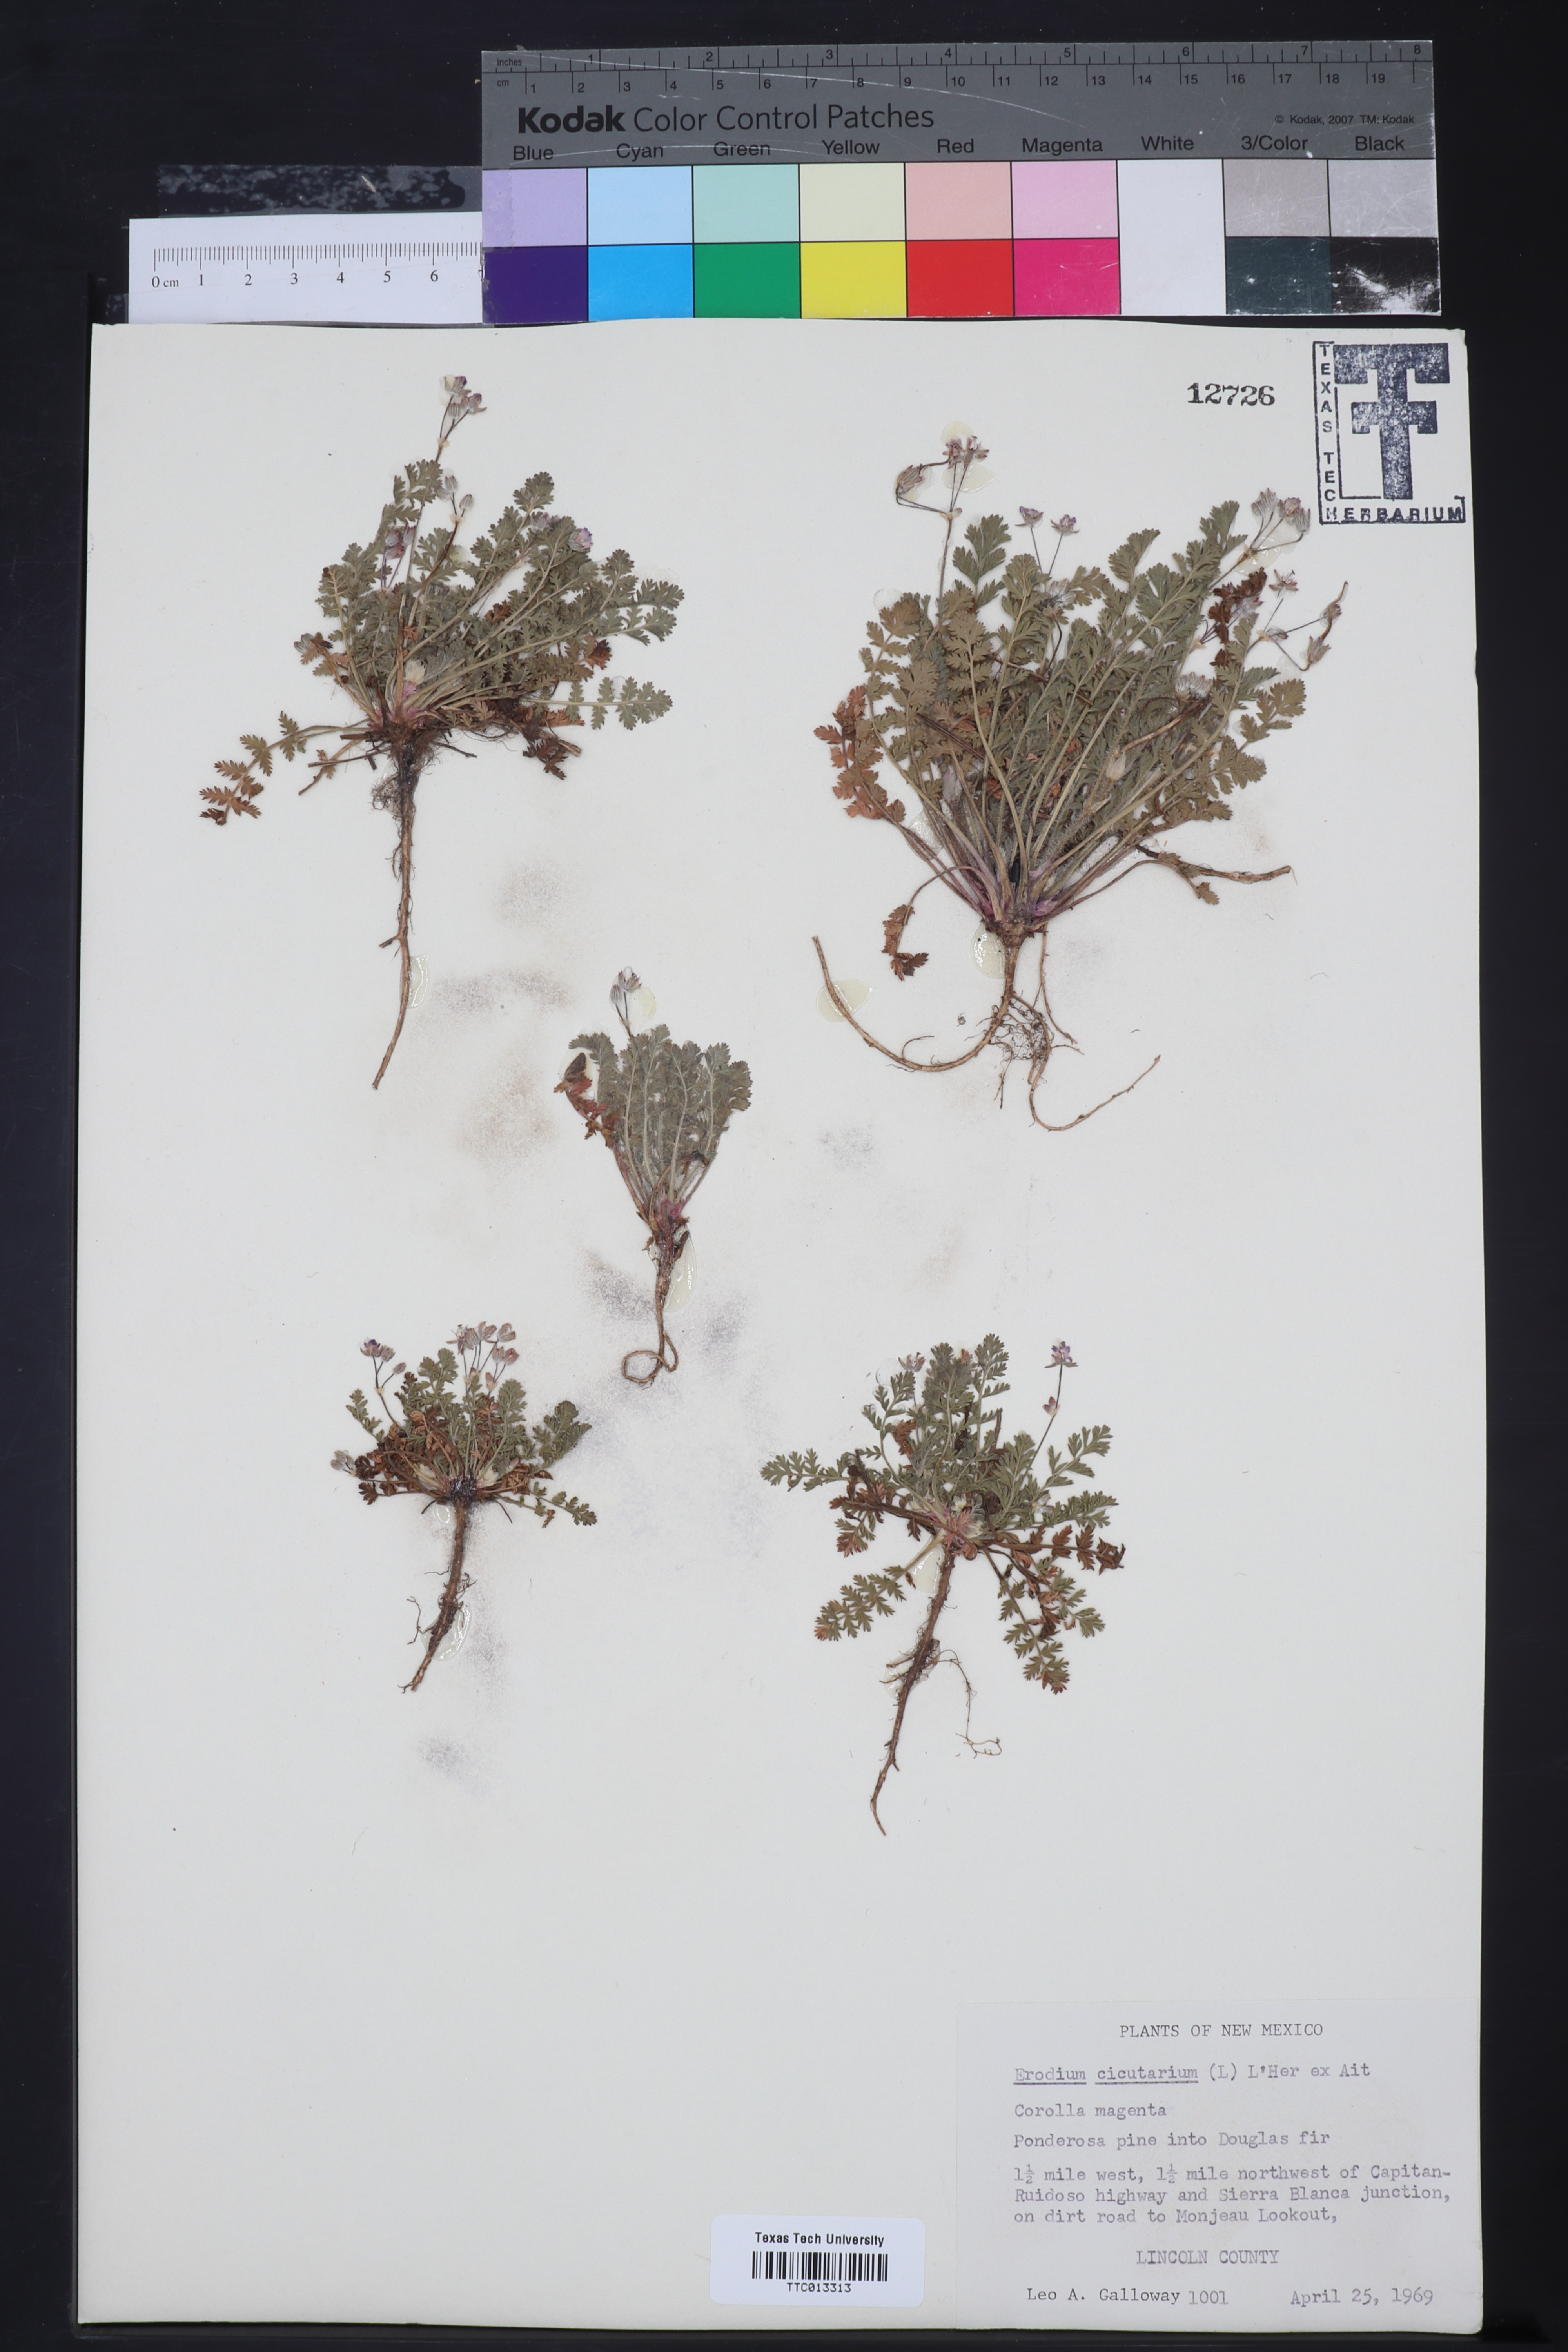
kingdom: Plantae
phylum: Tracheophyta
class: Magnoliopsida
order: Geraniales
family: Geraniaceae
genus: Erodium
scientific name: Erodium cicutarium
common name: Common stork's-bill
